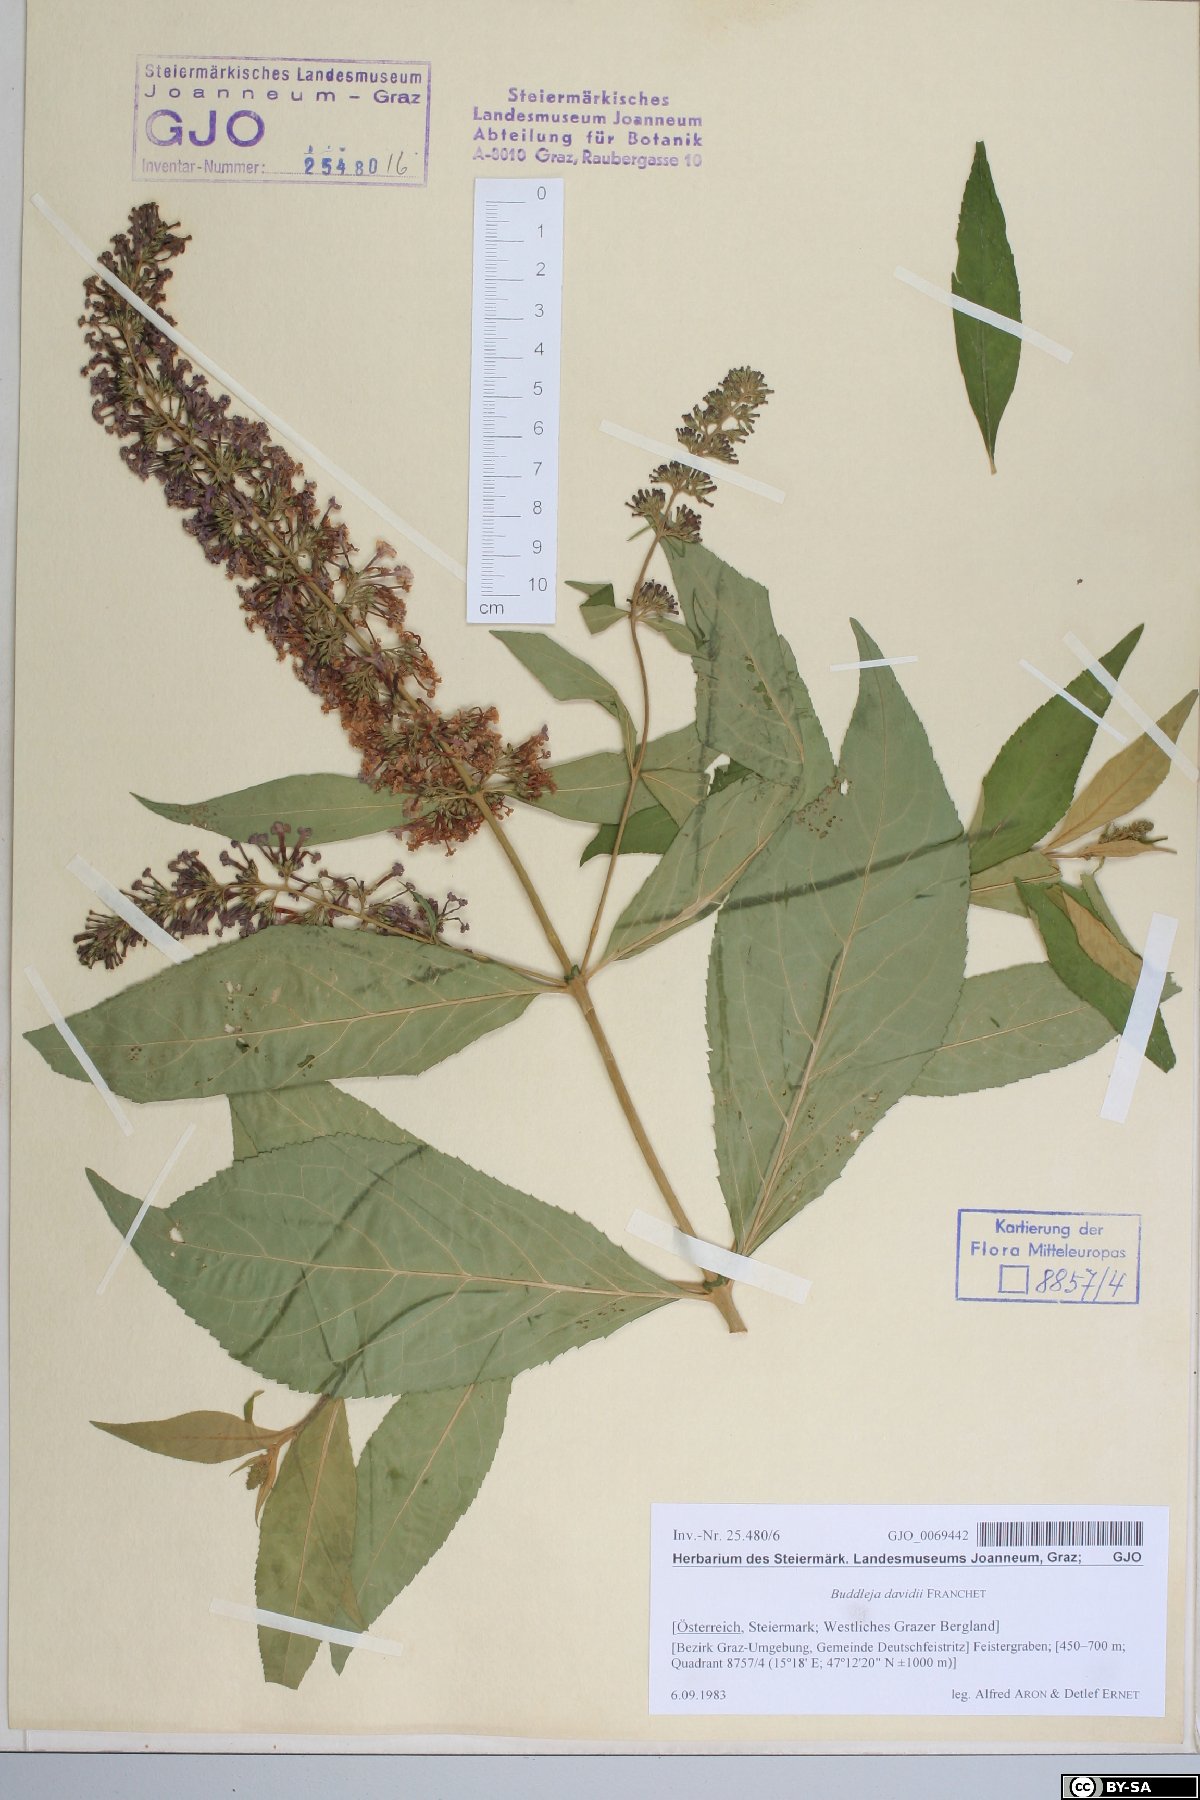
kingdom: Plantae
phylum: Tracheophyta
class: Magnoliopsida
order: Lamiales
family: Scrophulariaceae
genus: Buddleja
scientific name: Buddleja davidii
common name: Butterfly-bush
